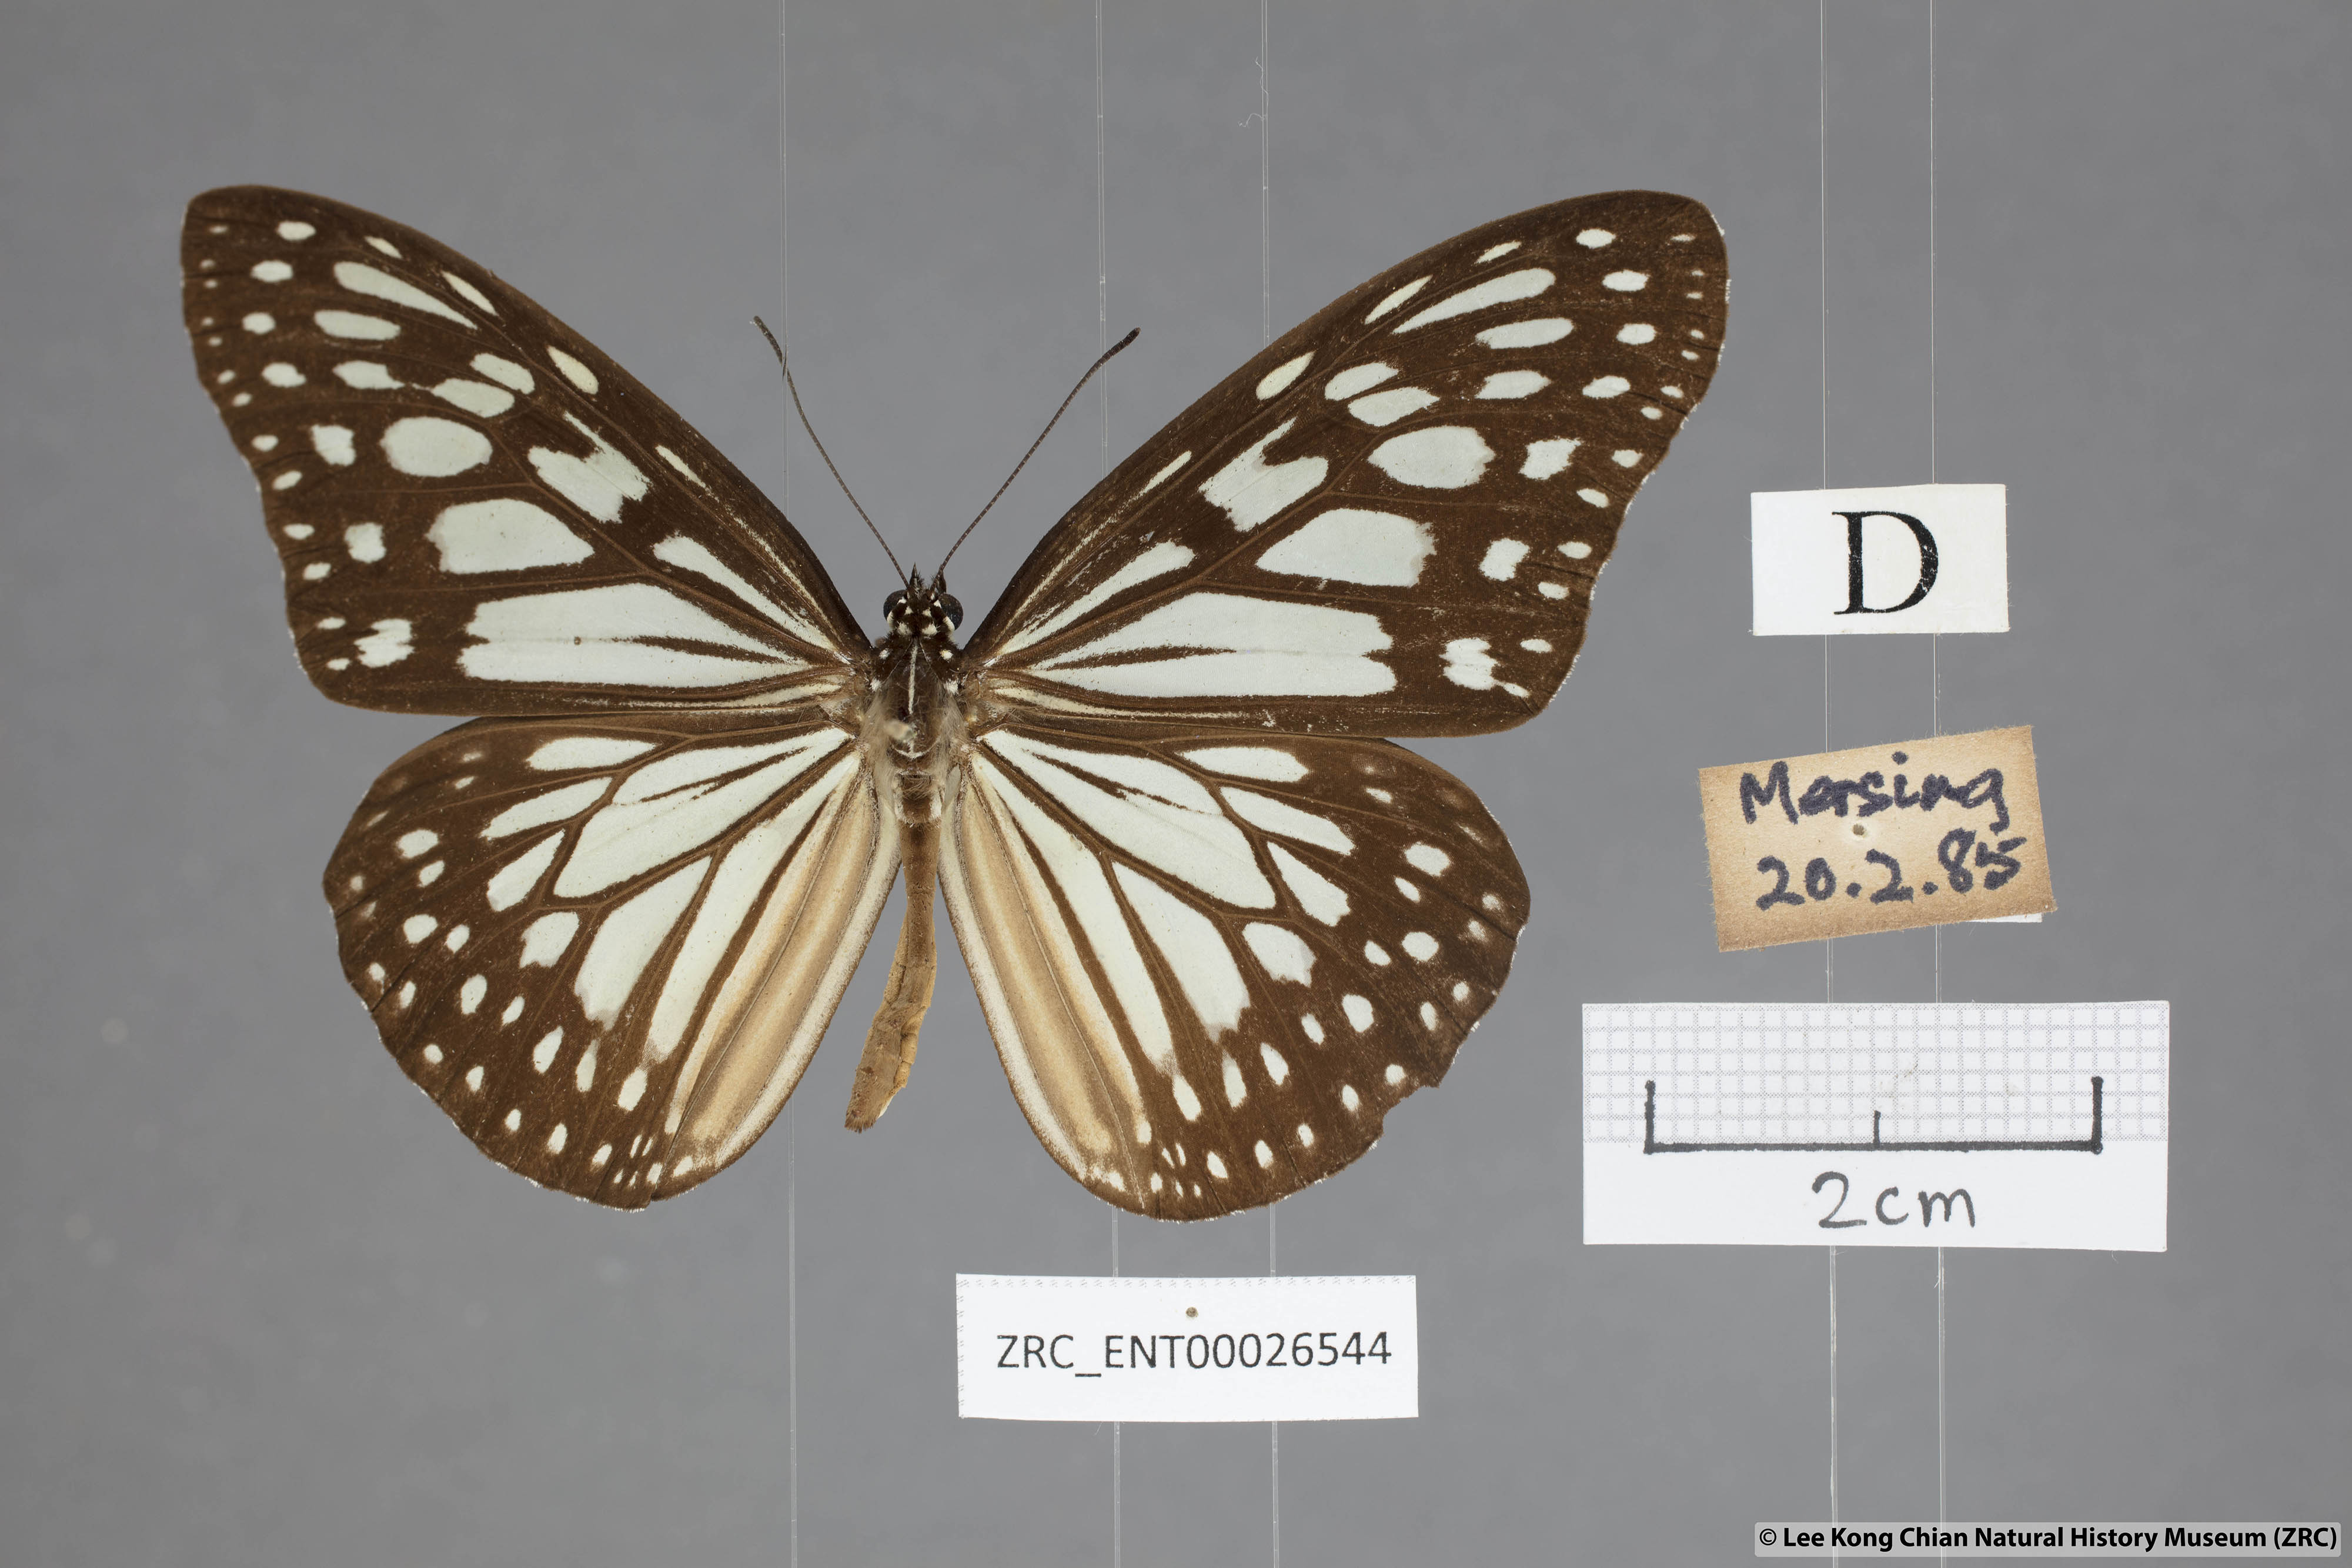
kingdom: Animalia
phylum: Arthropoda
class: Insecta
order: Lepidoptera
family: Nymphalidae
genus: Ideopsis
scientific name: Ideopsis juventa
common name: Grey glassy tiger
